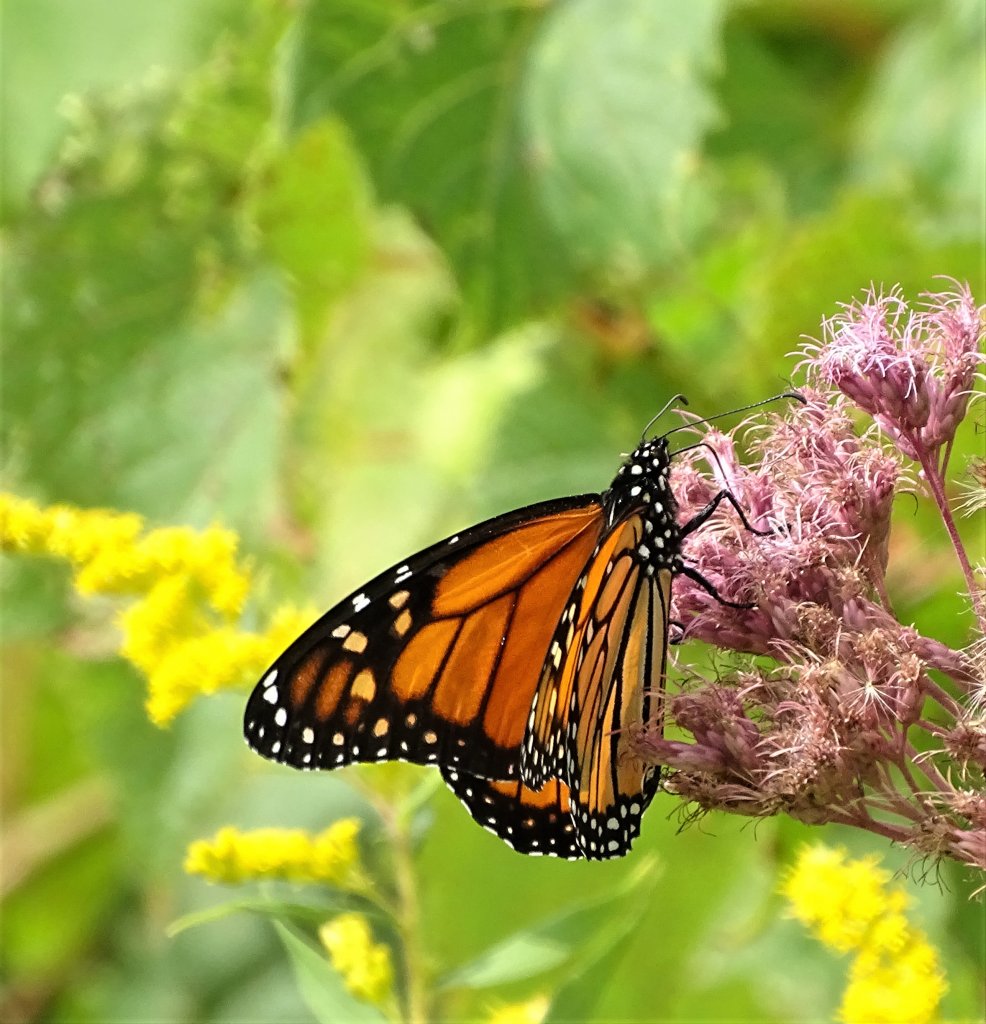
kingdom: Animalia
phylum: Arthropoda
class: Insecta
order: Lepidoptera
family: Nymphalidae
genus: Danaus
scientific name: Danaus plexippus
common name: Monarch
